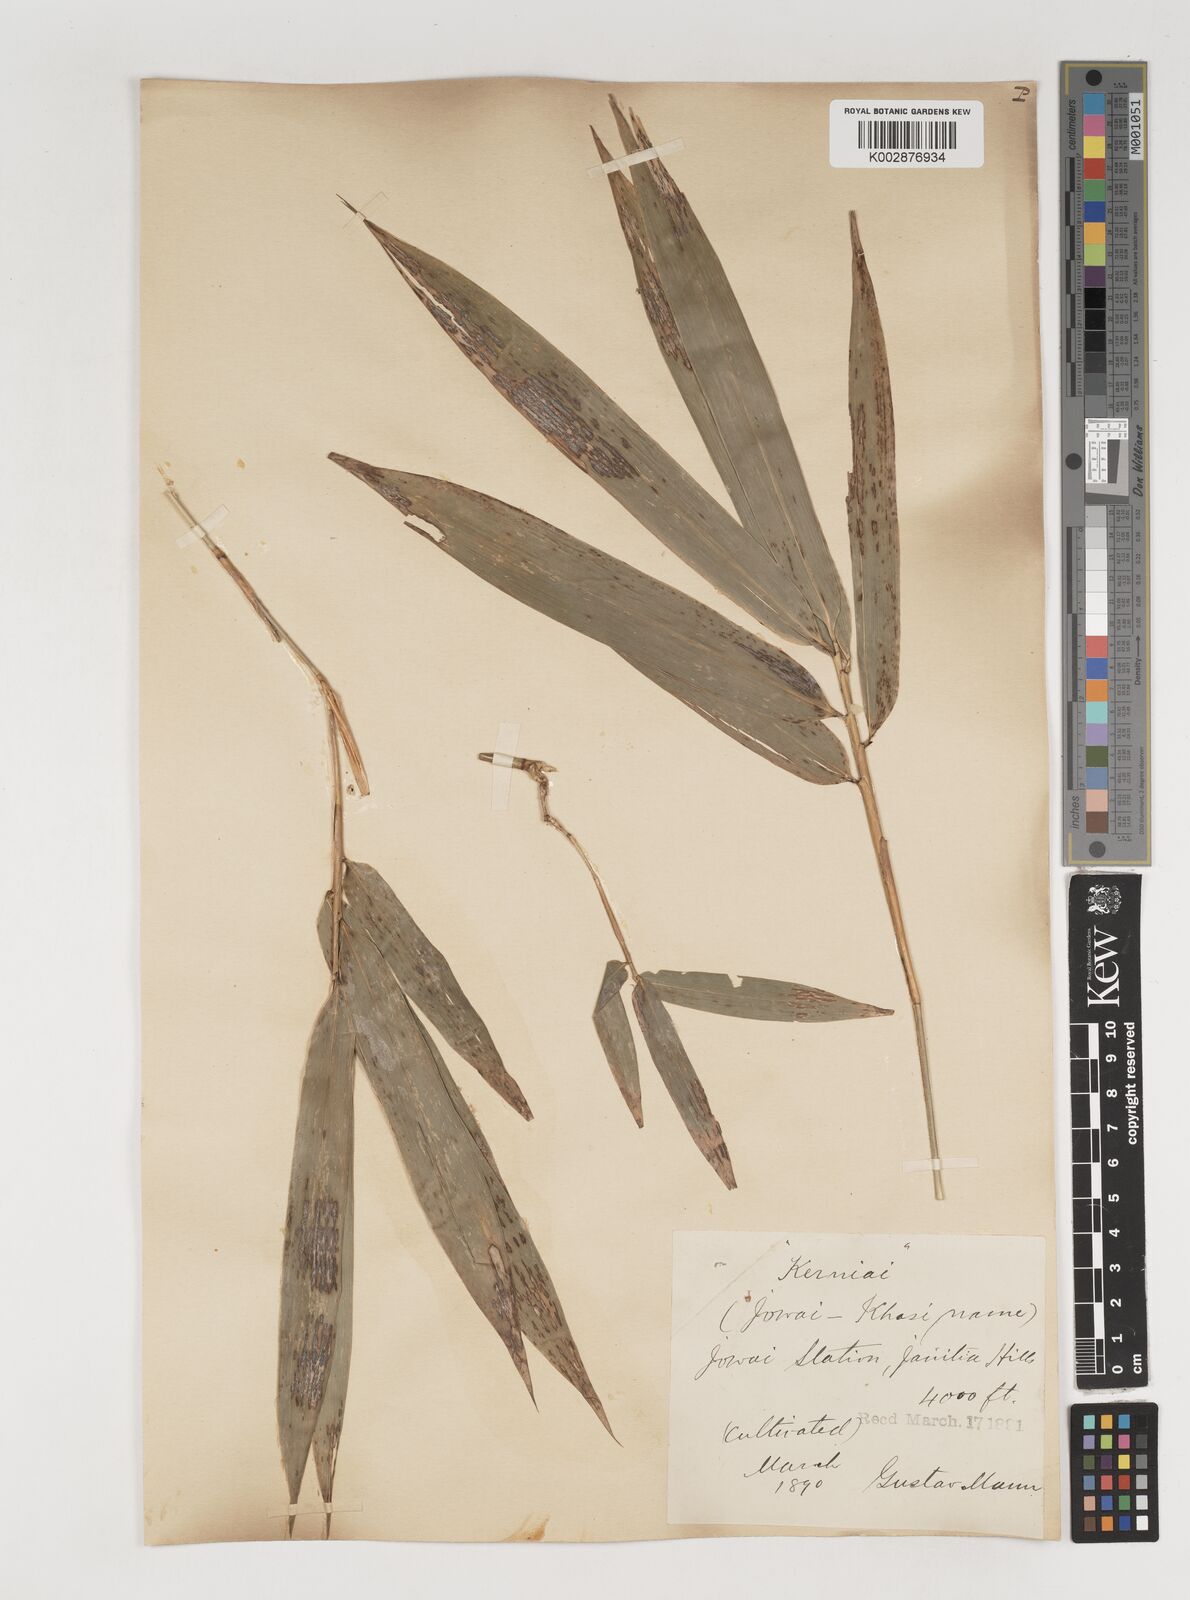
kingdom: Plantae
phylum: Tracheophyta
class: Liliopsida
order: Poales
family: Poaceae
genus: Bambusa
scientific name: Bambusa tulda
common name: Bengal bamboo
